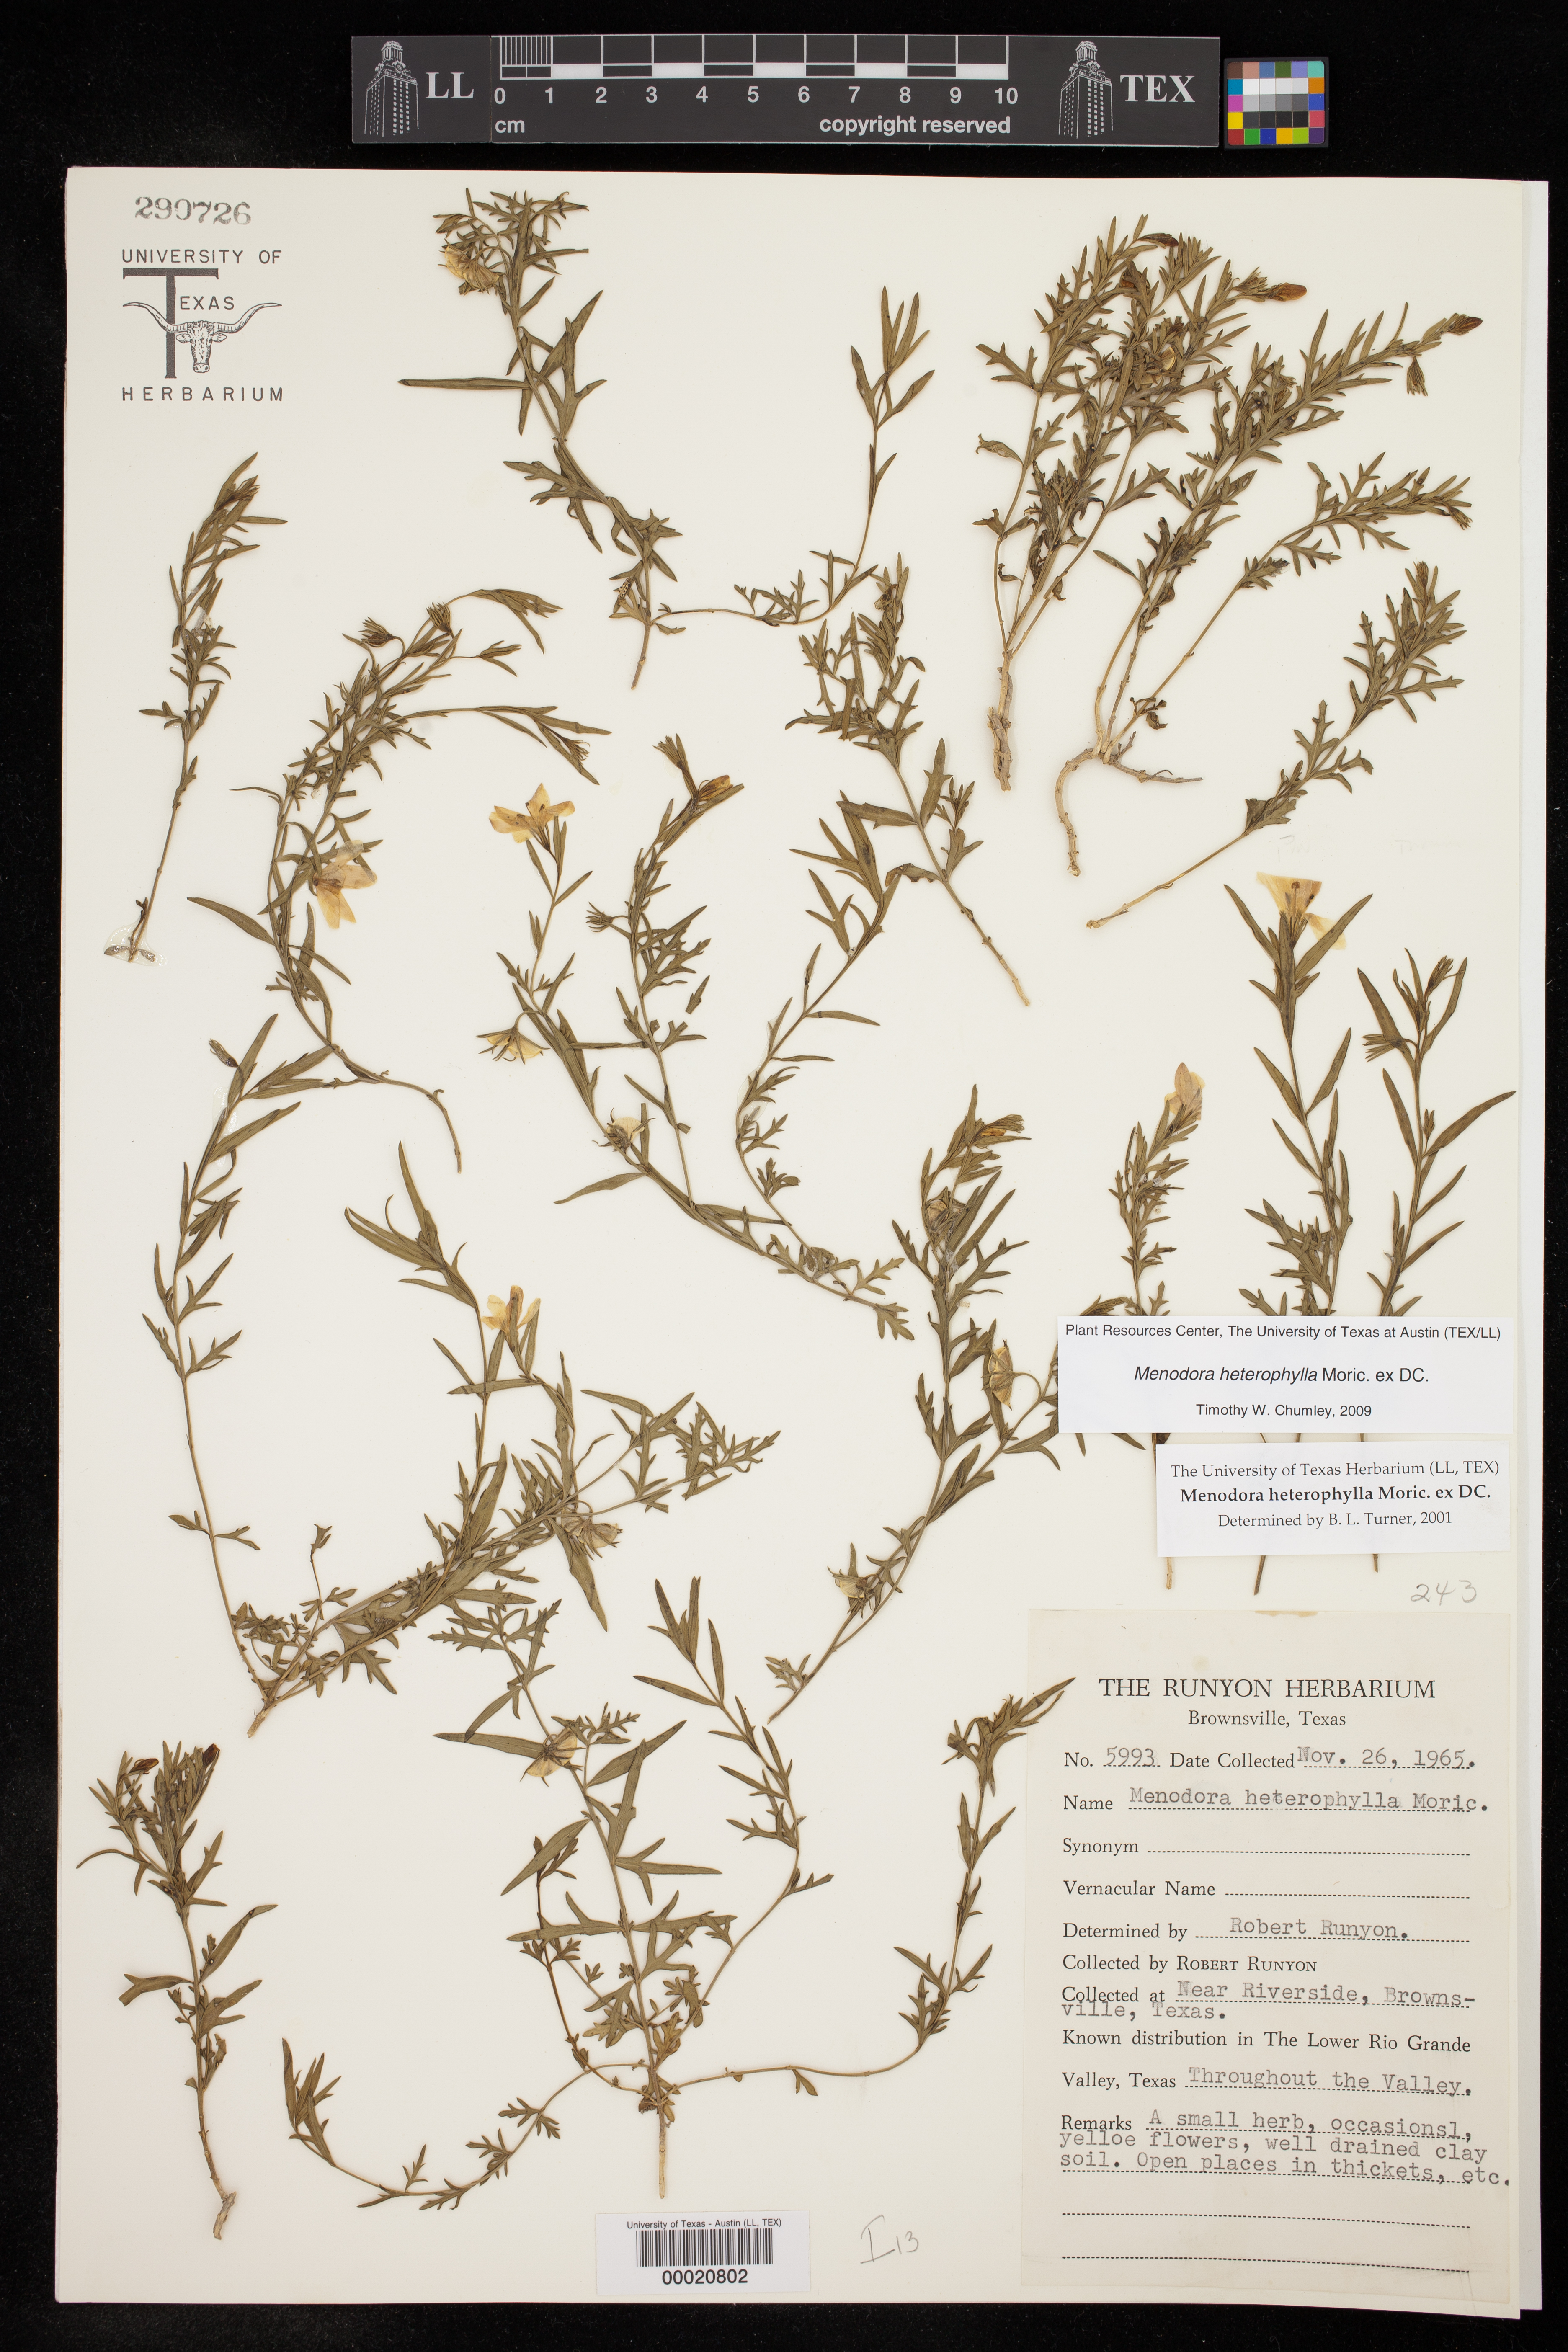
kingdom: Plantae
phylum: Tracheophyta
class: Magnoliopsida
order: Lamiales
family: Oleaceae
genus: Menodora
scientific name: Menodora heterophylla
